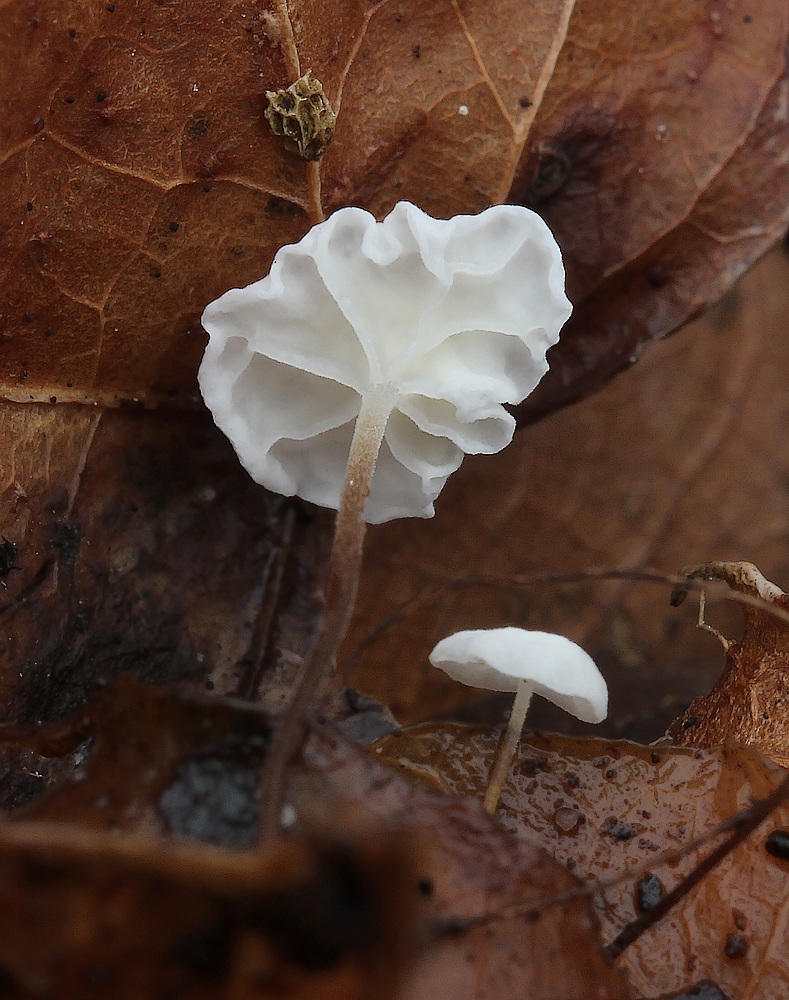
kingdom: Fungi
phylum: Basidiomycota
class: Agaricomycetes
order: Agaricales
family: Marasmiaceae
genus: Marasmius
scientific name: Marasmius epiphylloides
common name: vedbend-bruskhat
